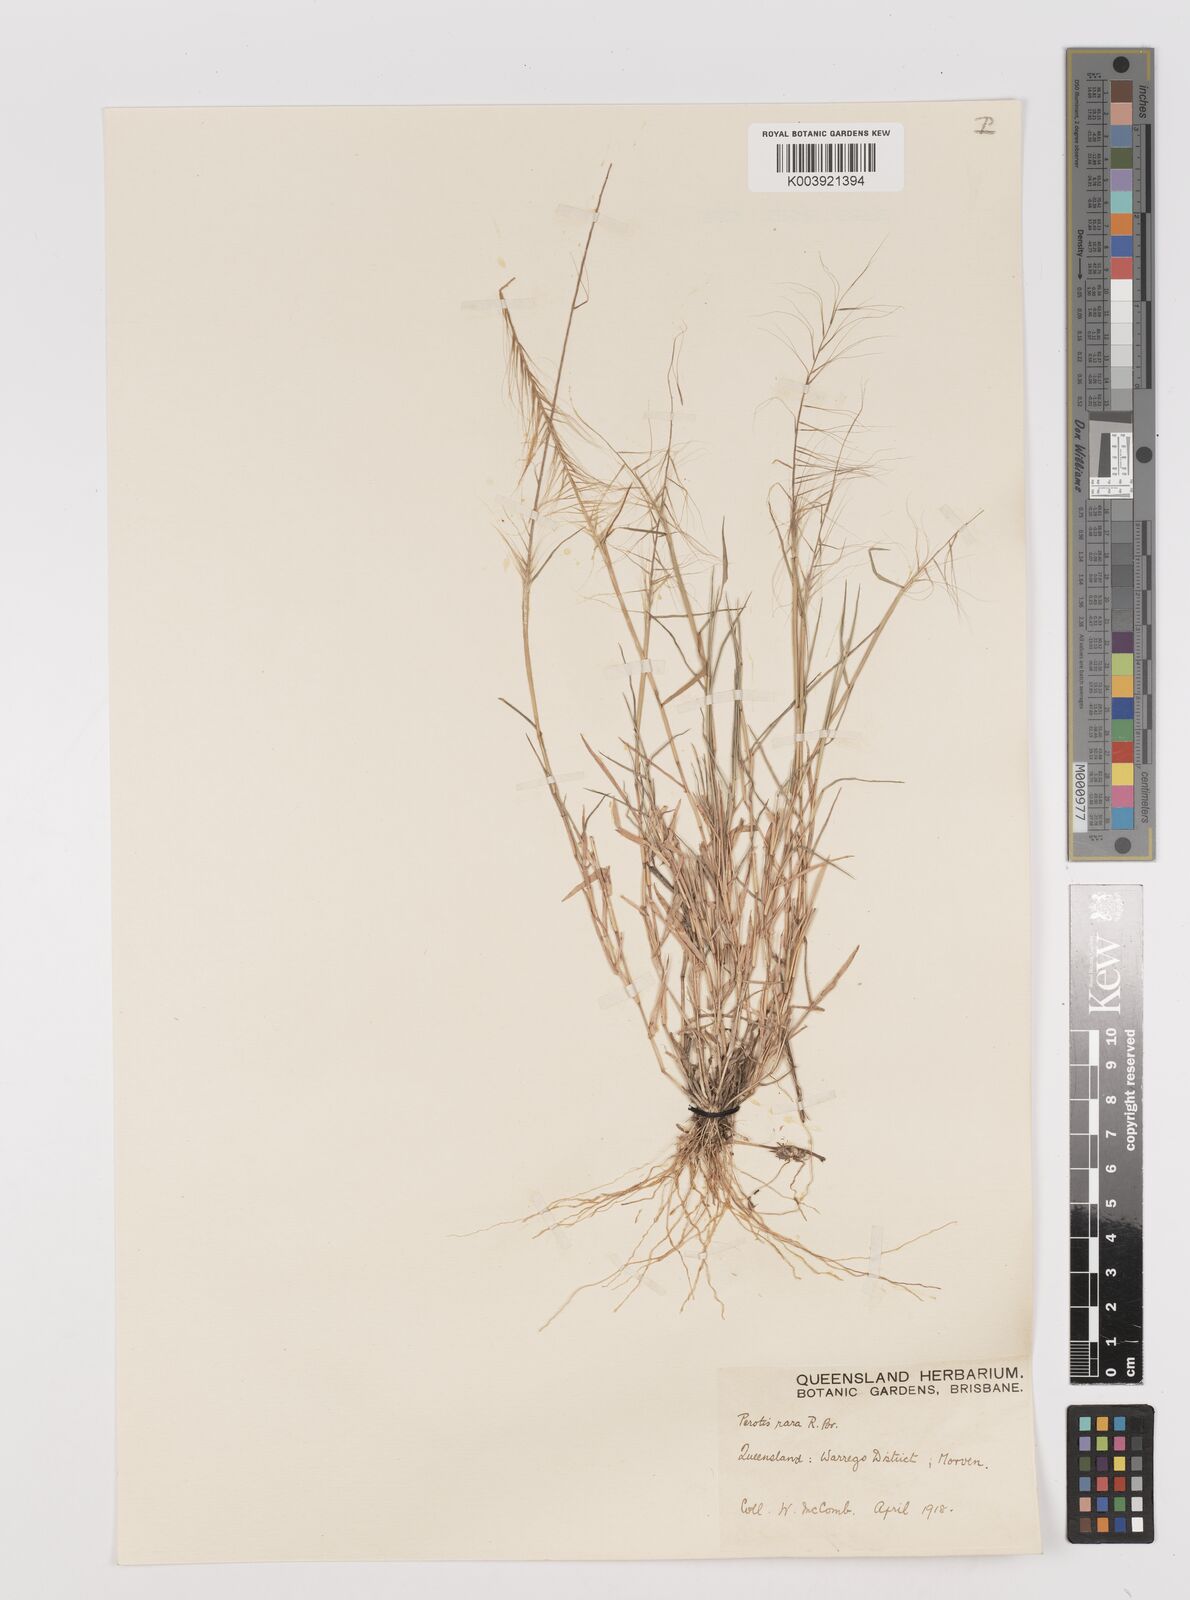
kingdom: Plantae
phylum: Tracheophyta
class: Liliopsida
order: Poales
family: Poaceae
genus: Perotis
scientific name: Perotis rara
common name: Comet grass
